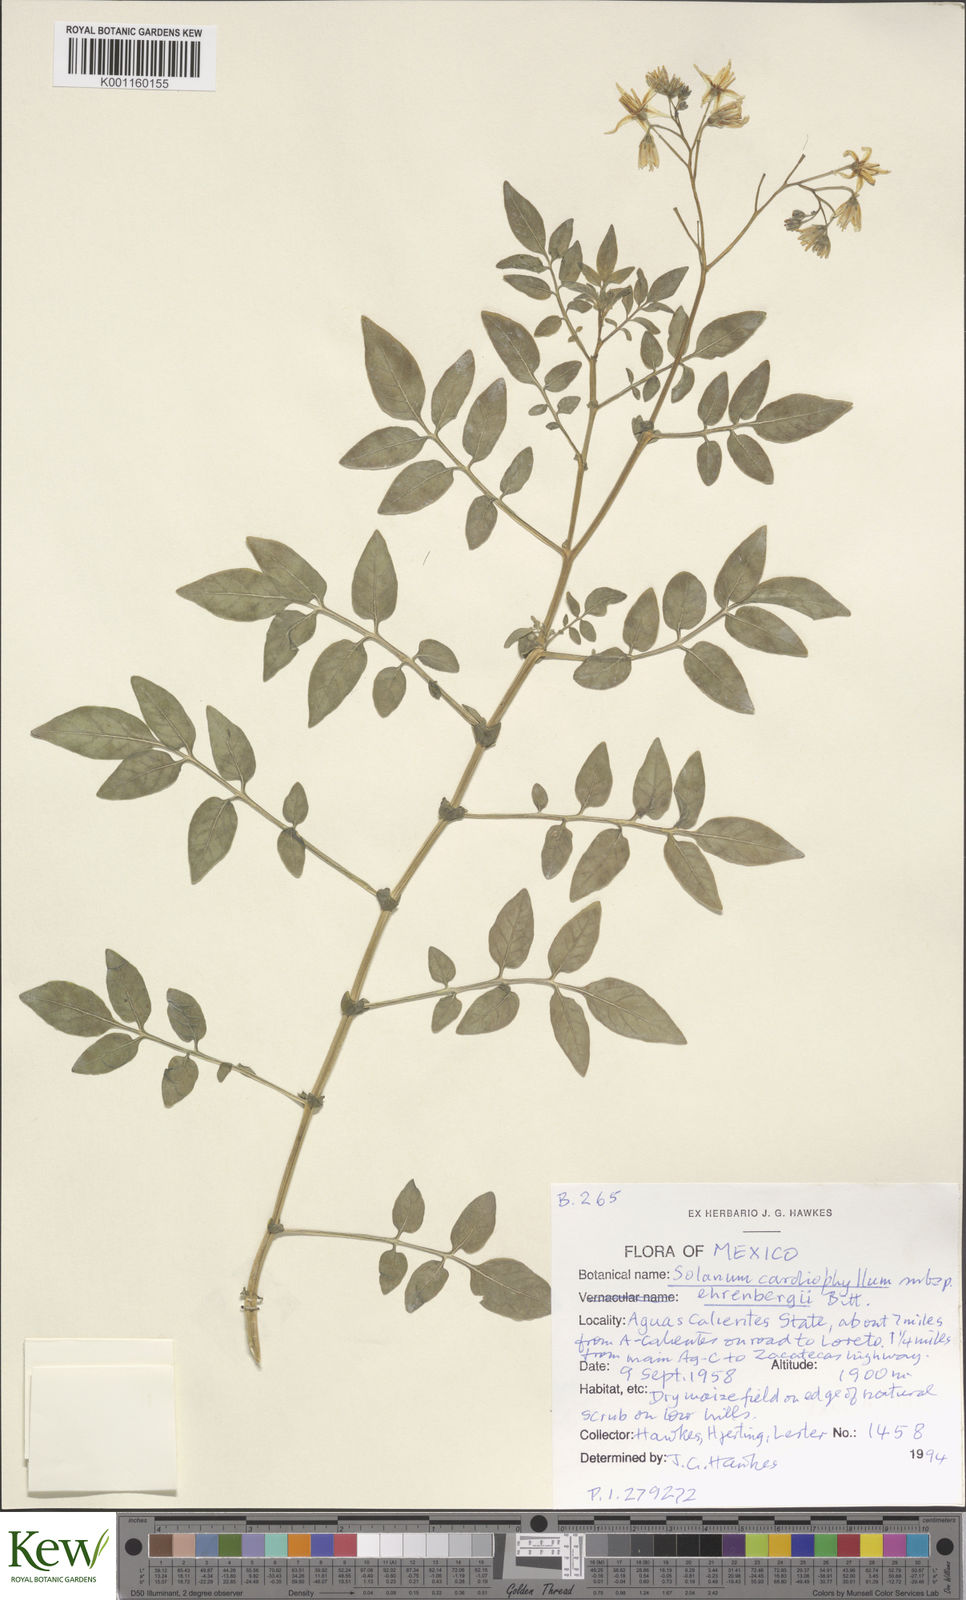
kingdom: Plantae
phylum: Tracheophyta
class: Magnoliopsida
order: Solanales
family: Solanaceae
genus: Solanum
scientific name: Solanum cardiophyllum
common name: Heartleaf horsenettle
